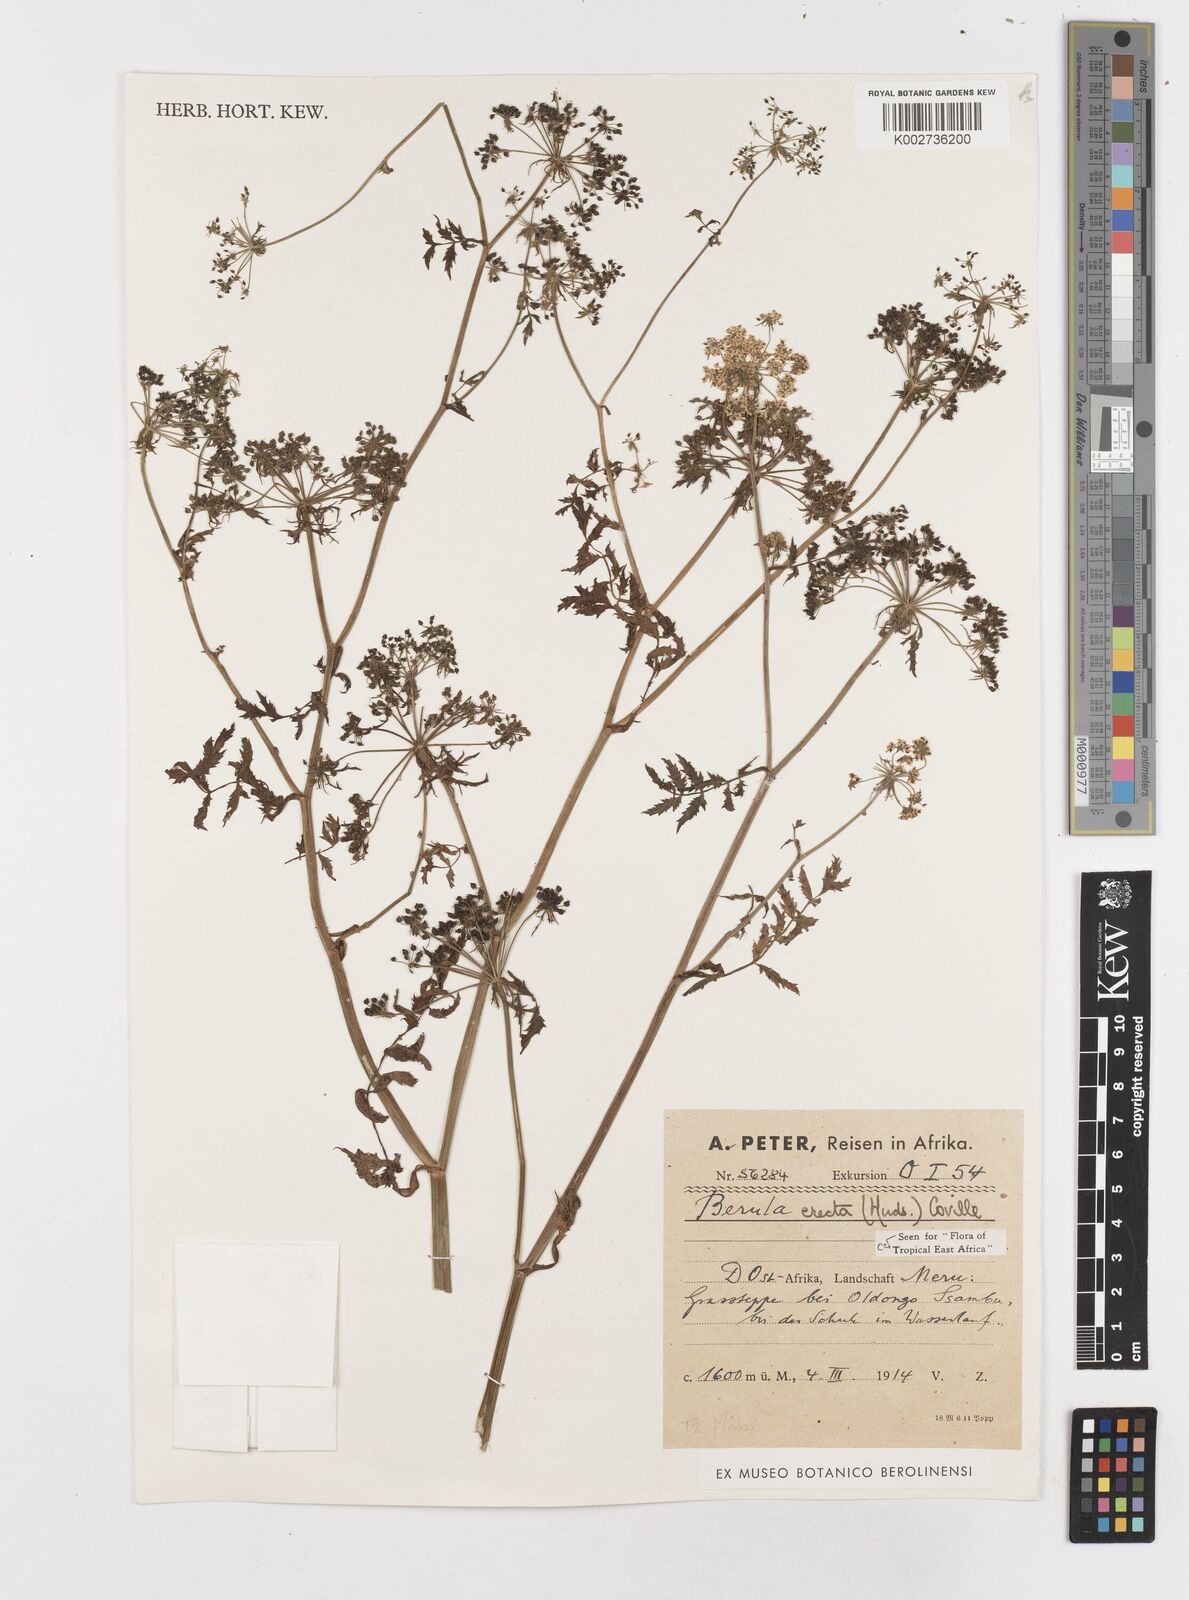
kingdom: Plantae
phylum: Tracheophyta
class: Magnoliopsida
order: Apiales
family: Apiaceae
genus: Berula
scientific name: Berula erecta
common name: Lesser water-parsnip
